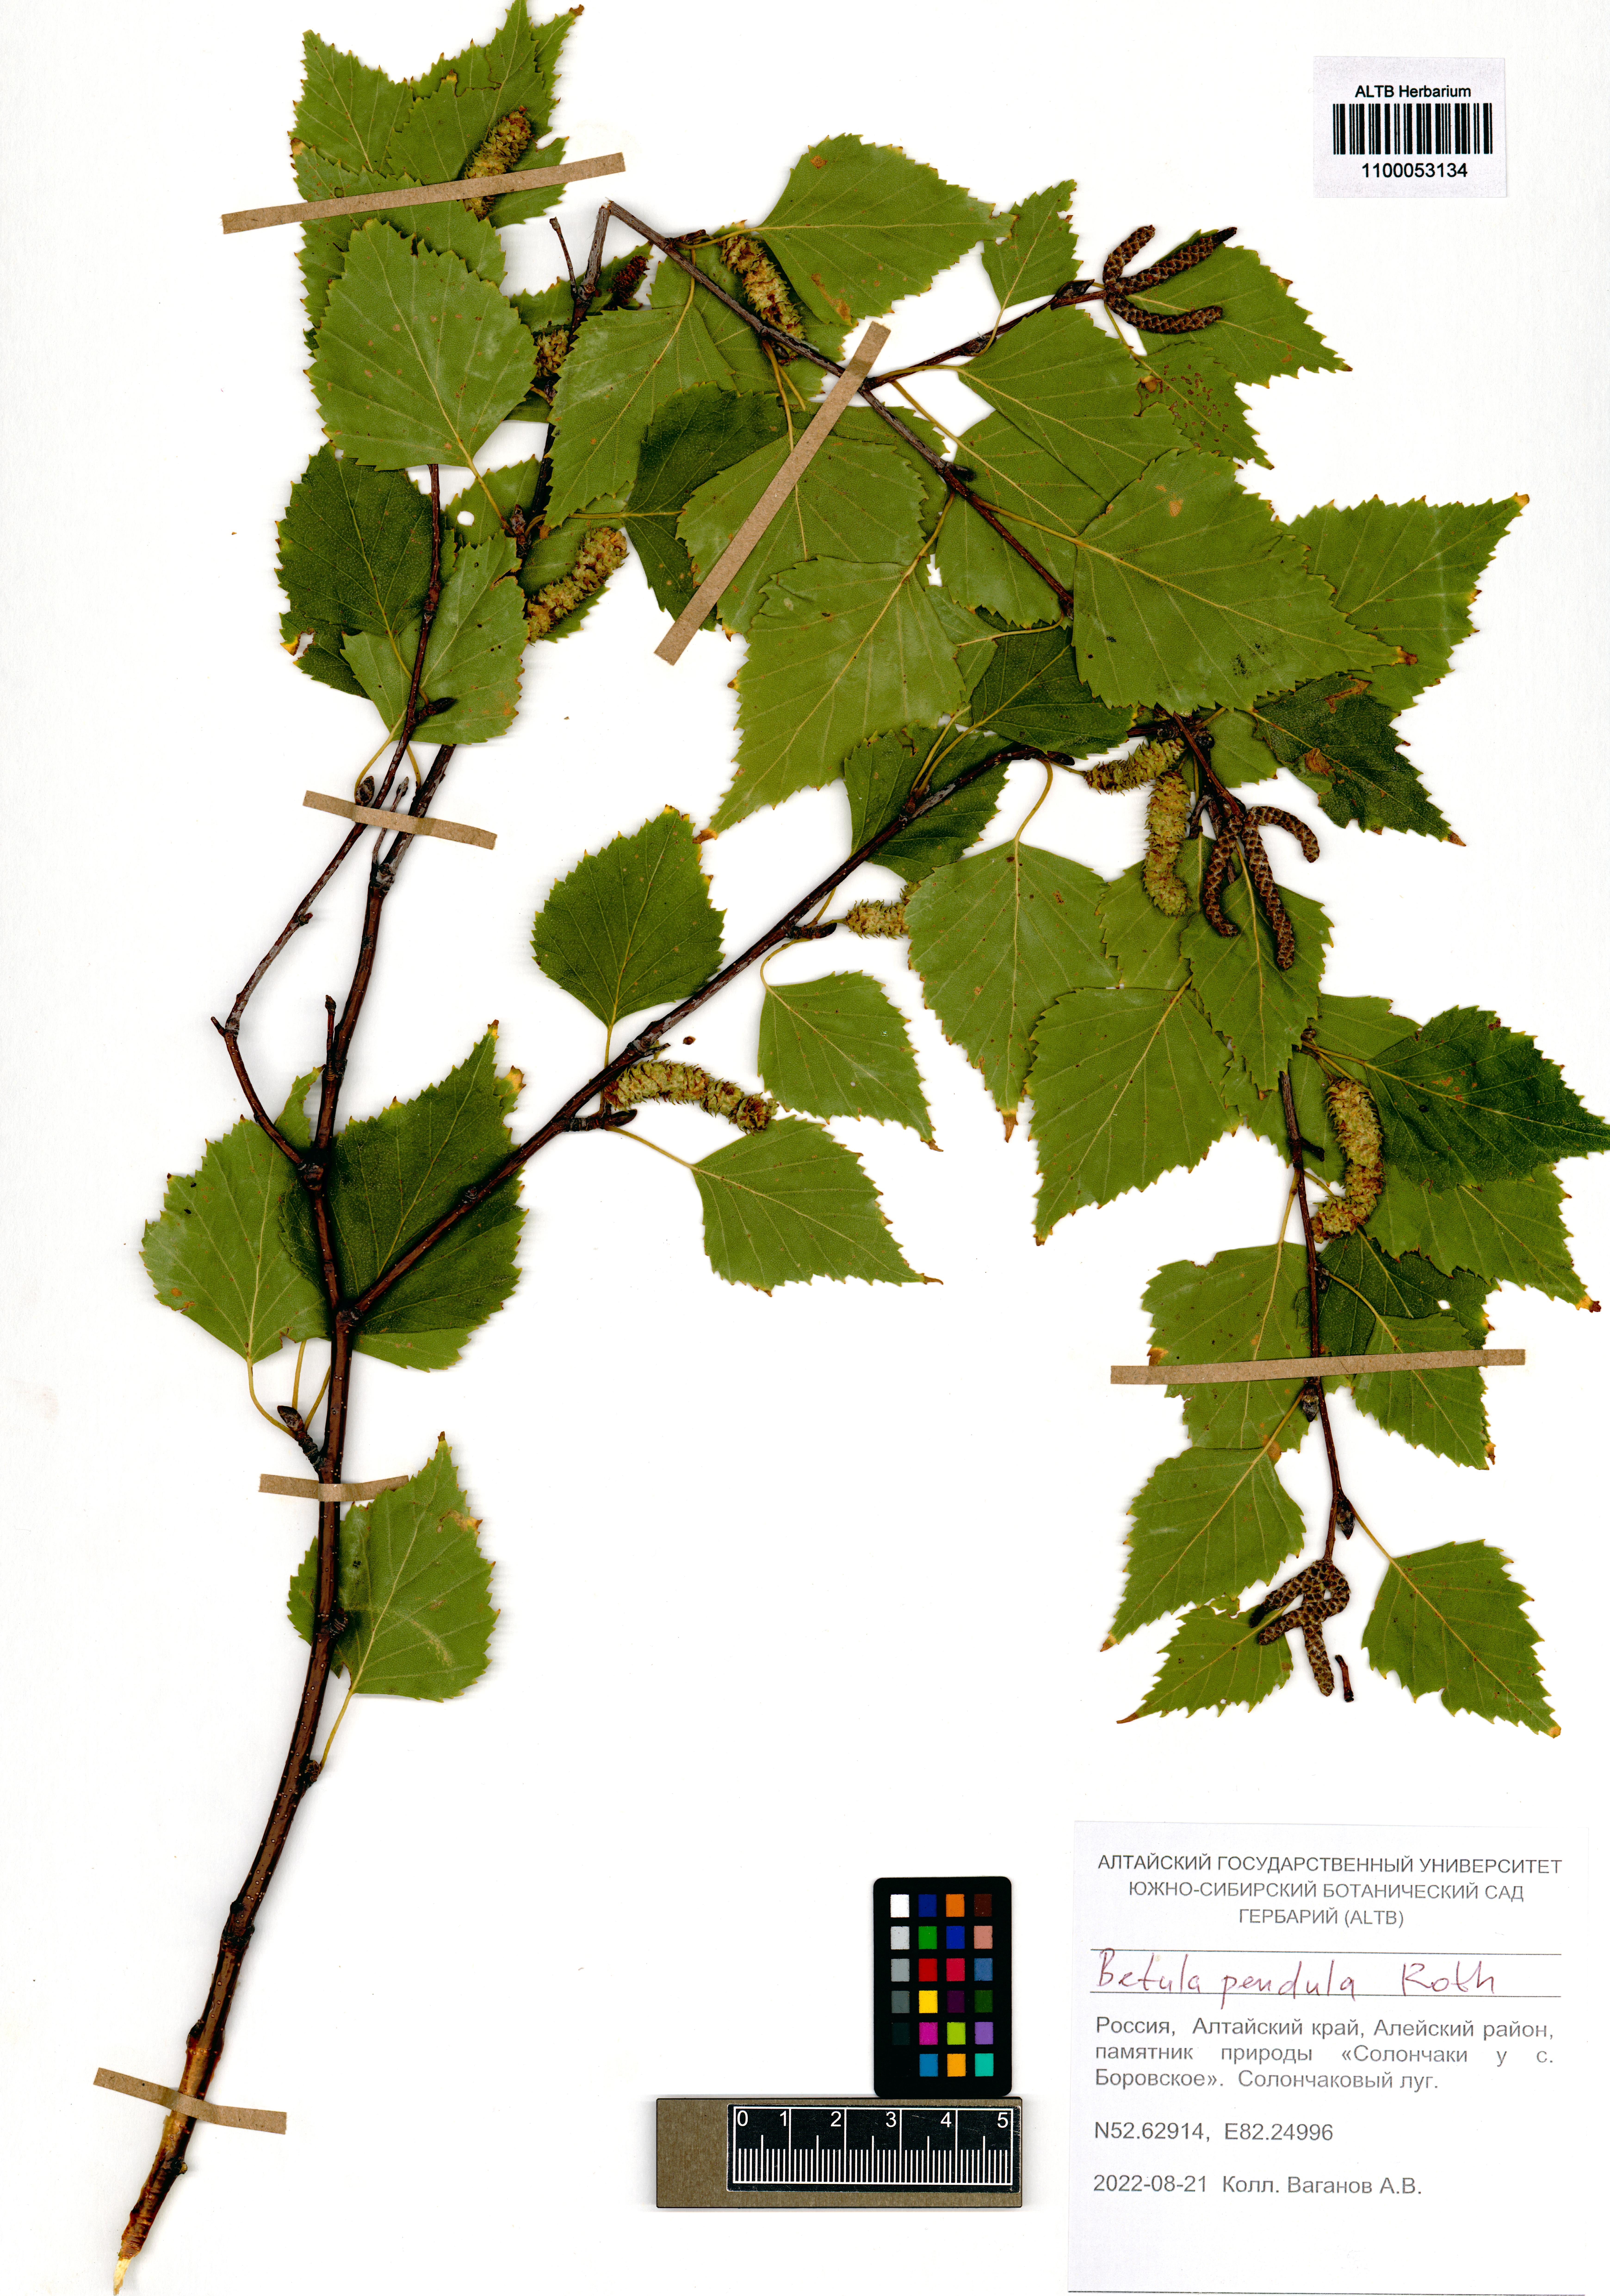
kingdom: Plantae
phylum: Tracheophyta
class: Magnoliopsida
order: Fagales
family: Betulaceae
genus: Betula
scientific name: Betula pendula
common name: Silver birch
